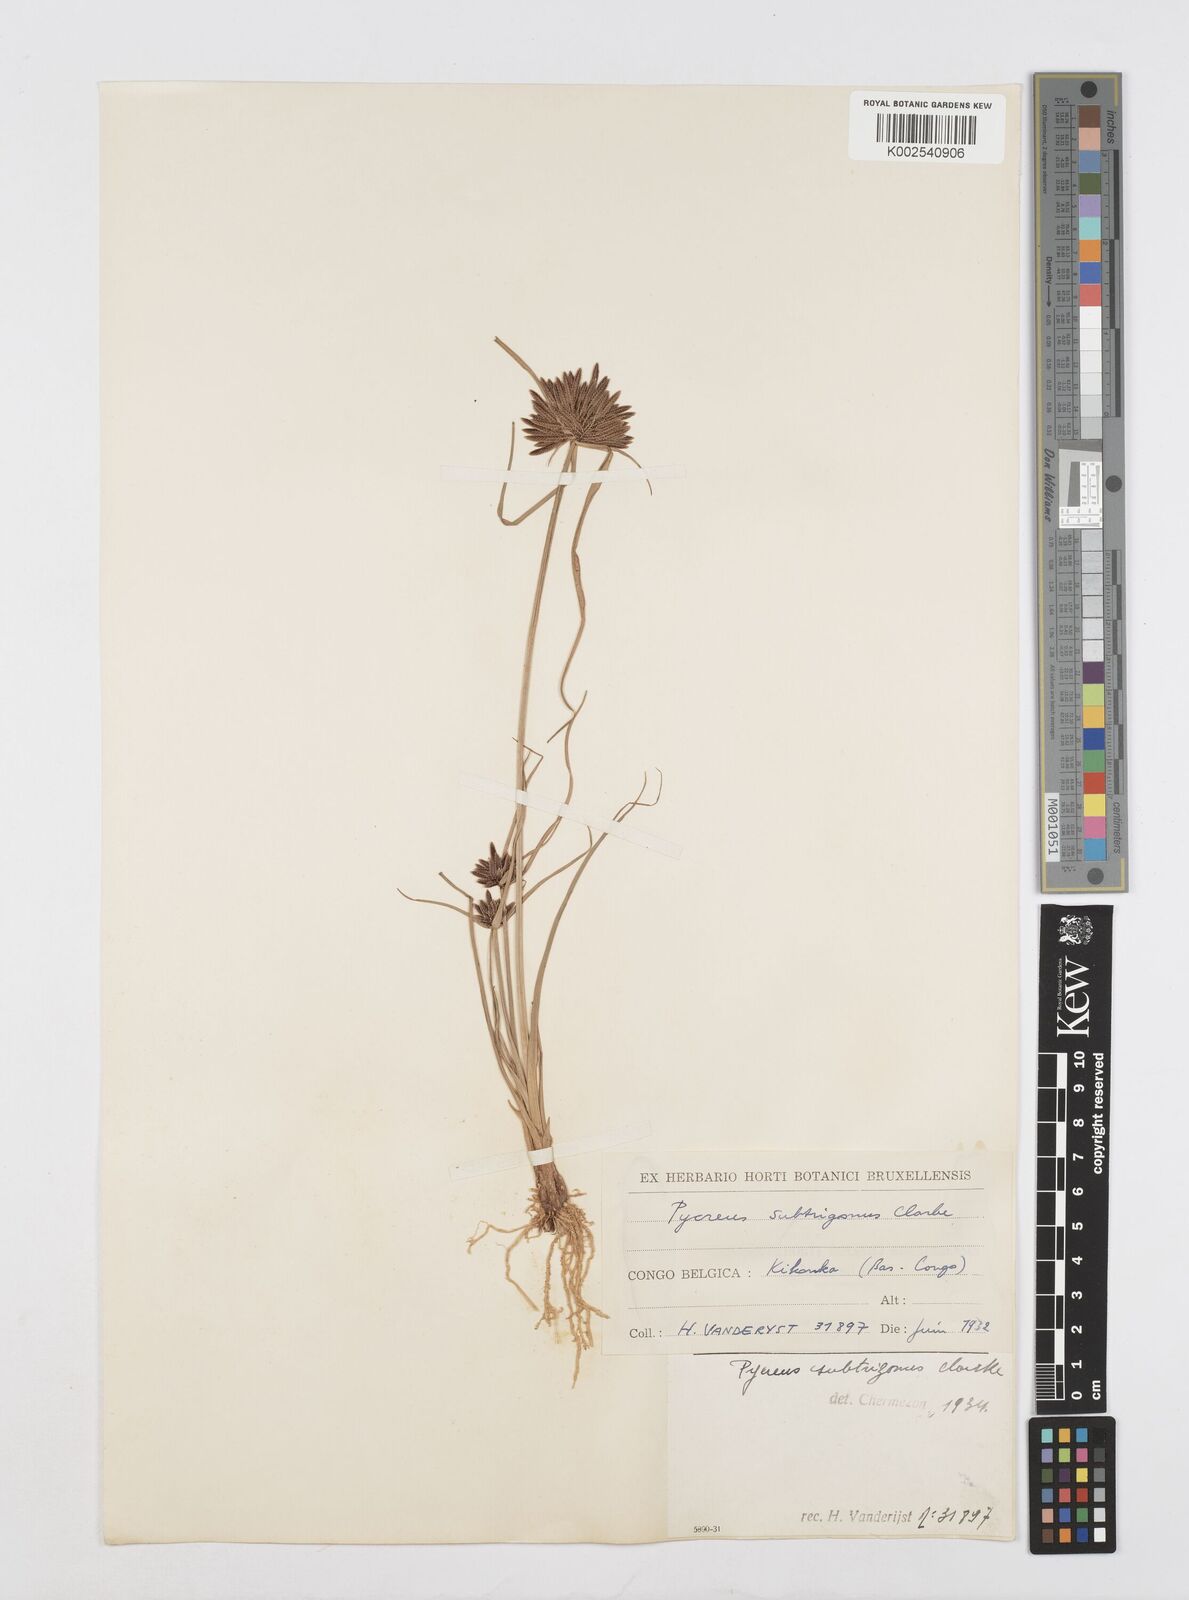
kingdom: Plantae
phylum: Tracheophyta
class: Liliopsida
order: Poales
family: Cyperaceae
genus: Cyperus
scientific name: Cyperus subtrigonus
